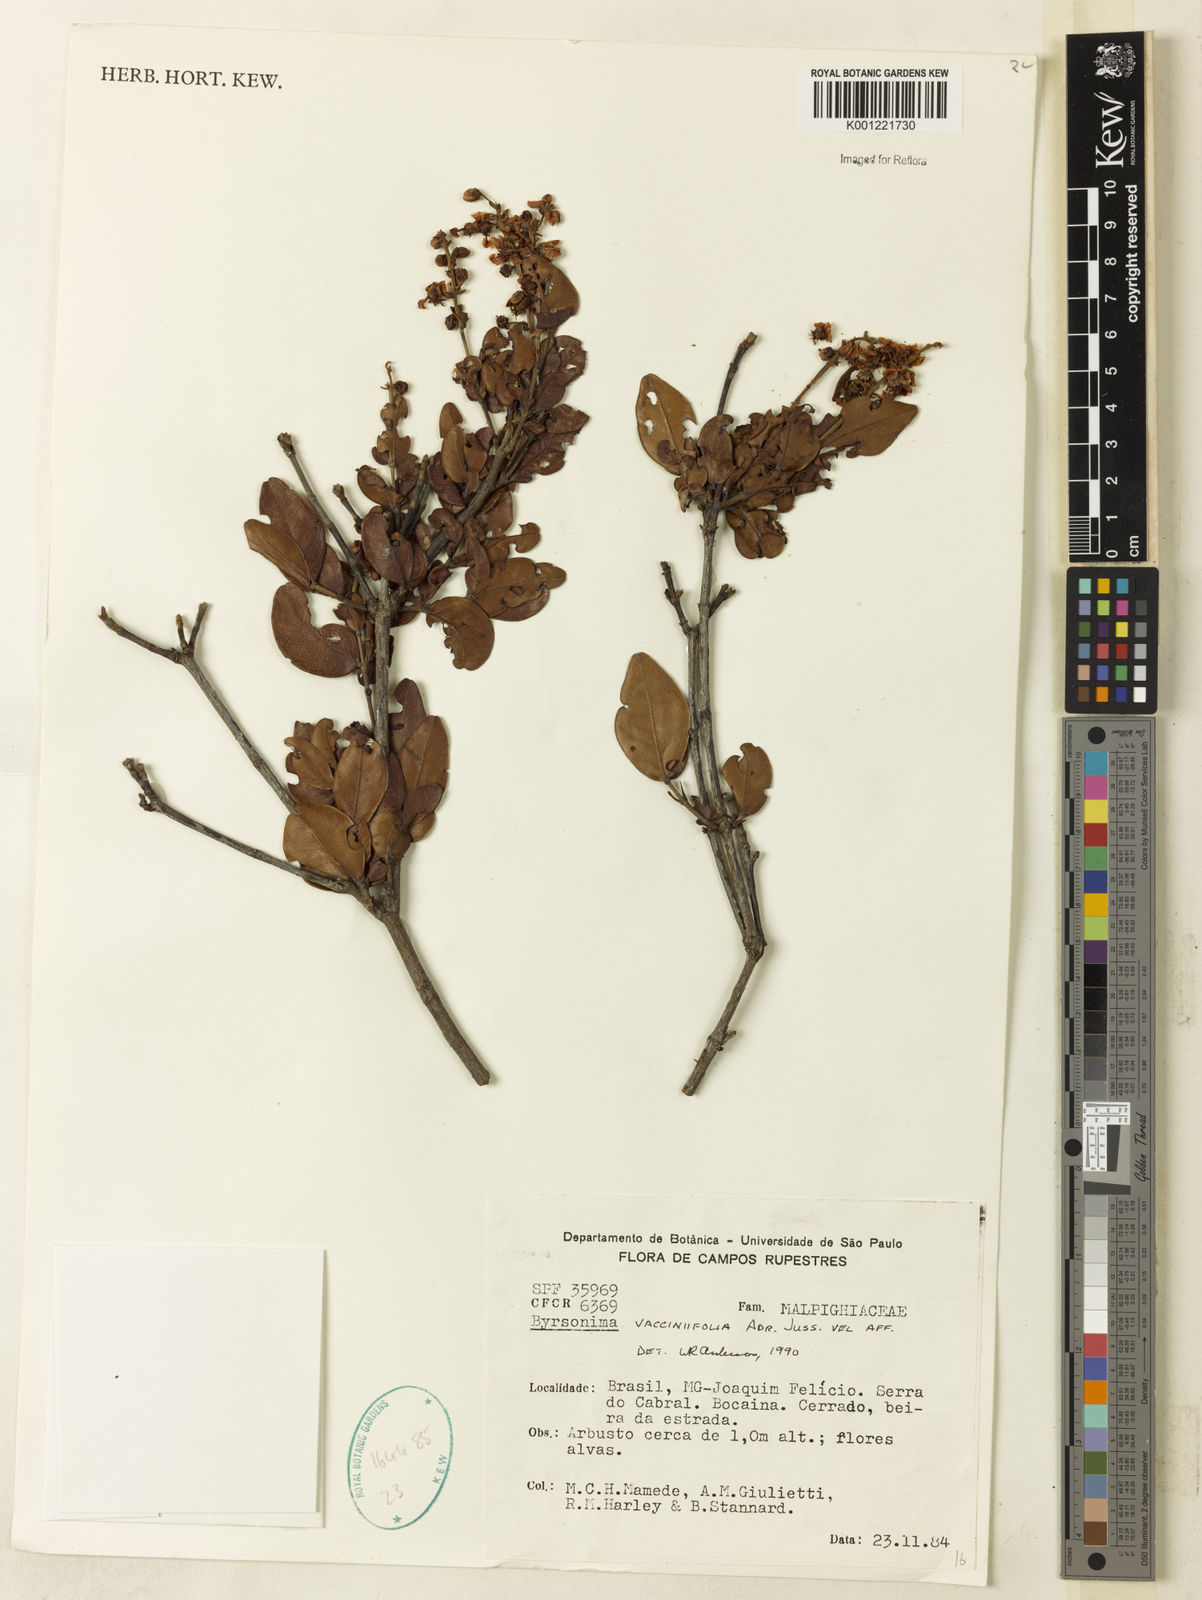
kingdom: Plantae
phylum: Tracheophyta
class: Magnoliopsida
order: Malpighiales
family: Malpighiaceae
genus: Byrsonima
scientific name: Byrsonima vacciniifolia
